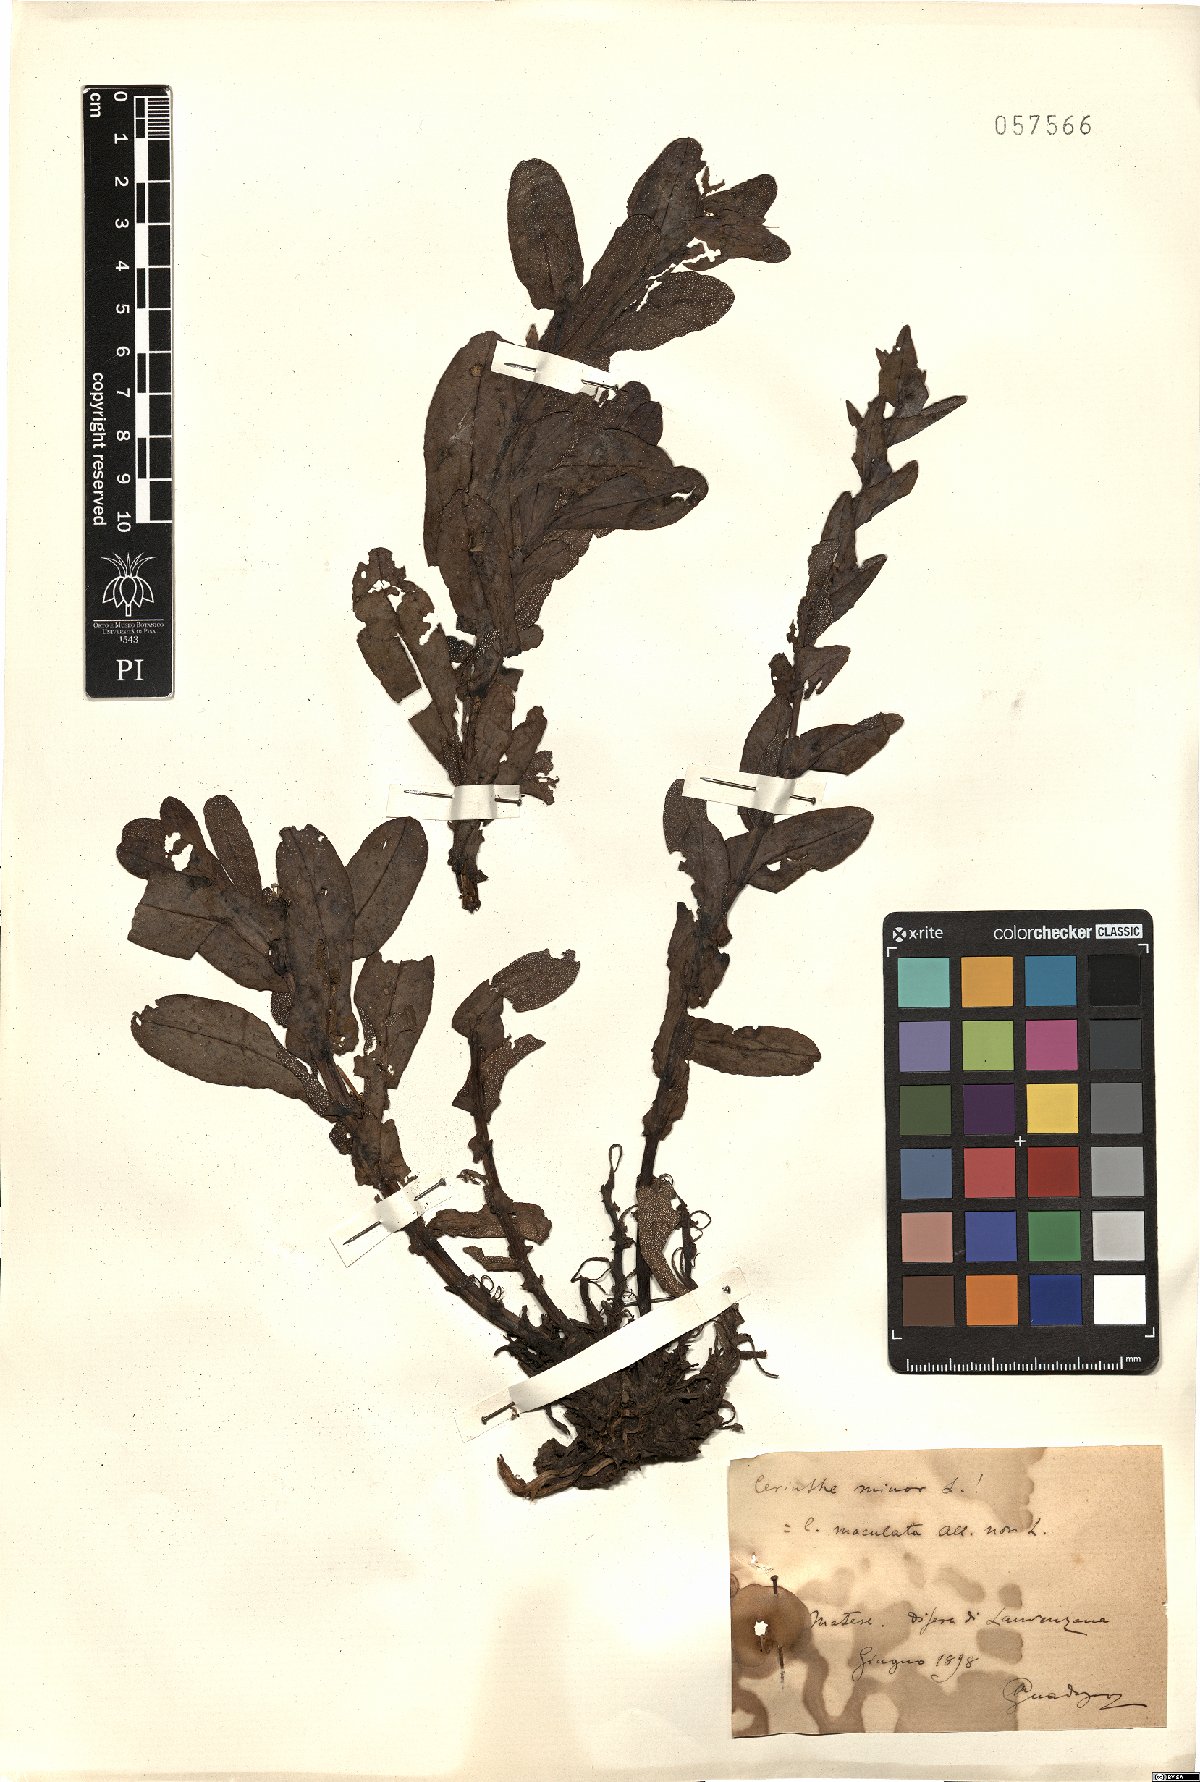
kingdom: Plantae
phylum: Tracheophyta
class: Magnoliopsida
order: Boraginales
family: Boraginaceae
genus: Cerinthe
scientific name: Cerinthe minor
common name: Lesser honeywort
